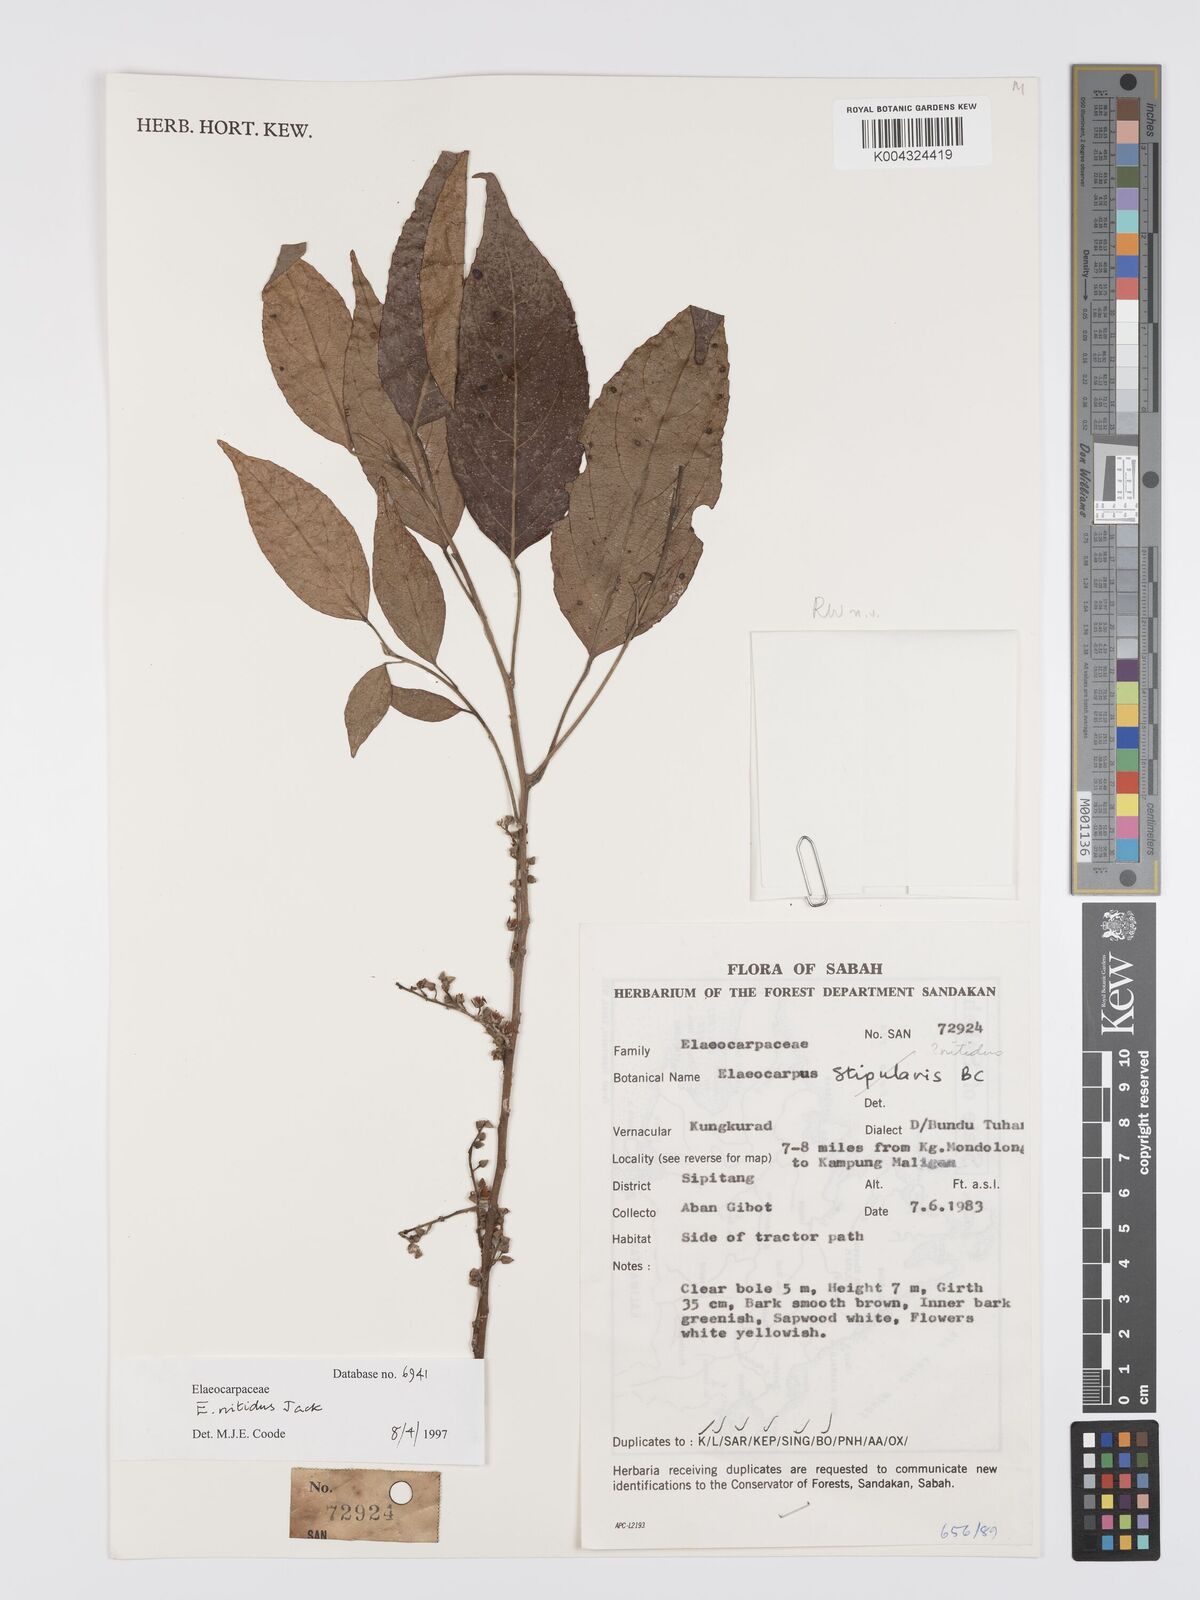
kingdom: Plantae
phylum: Tracheophyta
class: Magnoliopsida
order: Oxalidales
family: Elaeocarpaceae
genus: Elaeocarpus
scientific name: Elaeocarpus nitidus
